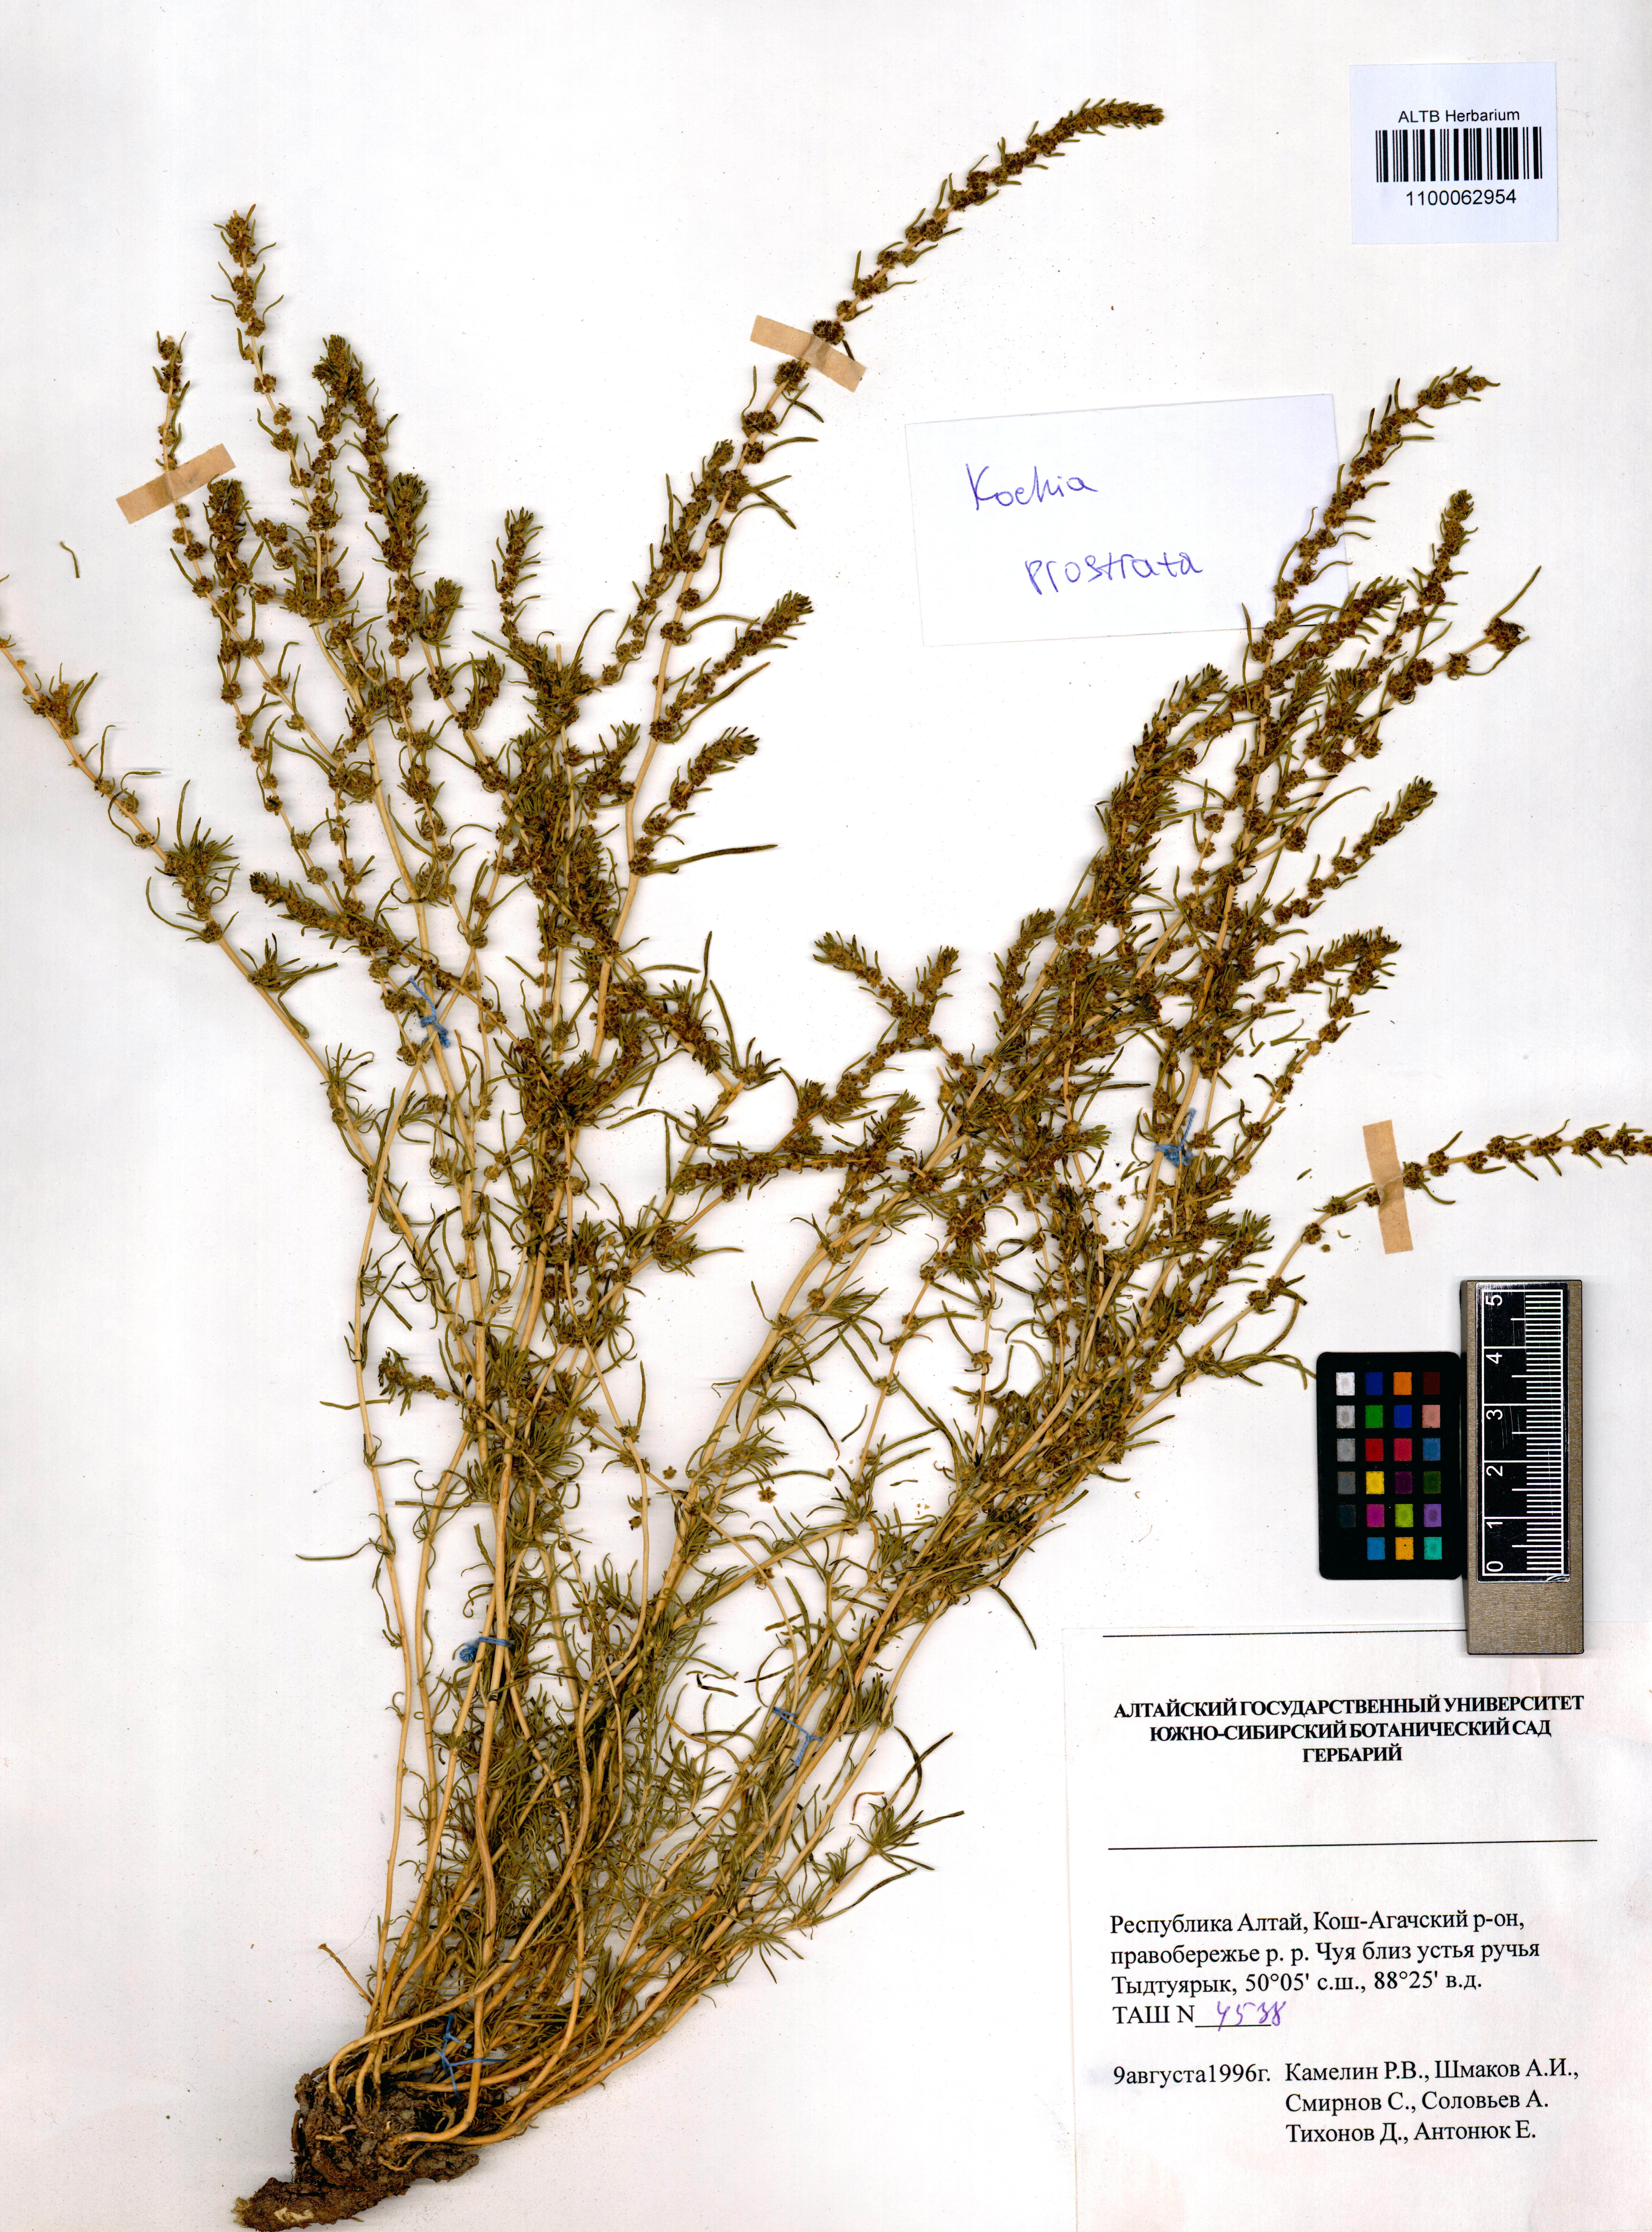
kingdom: Plantae
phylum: Tracheophyta
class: Magnoliopsida
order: Caryophyllales
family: Amaranthaceae
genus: Bassia
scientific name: Bassia prostrata
